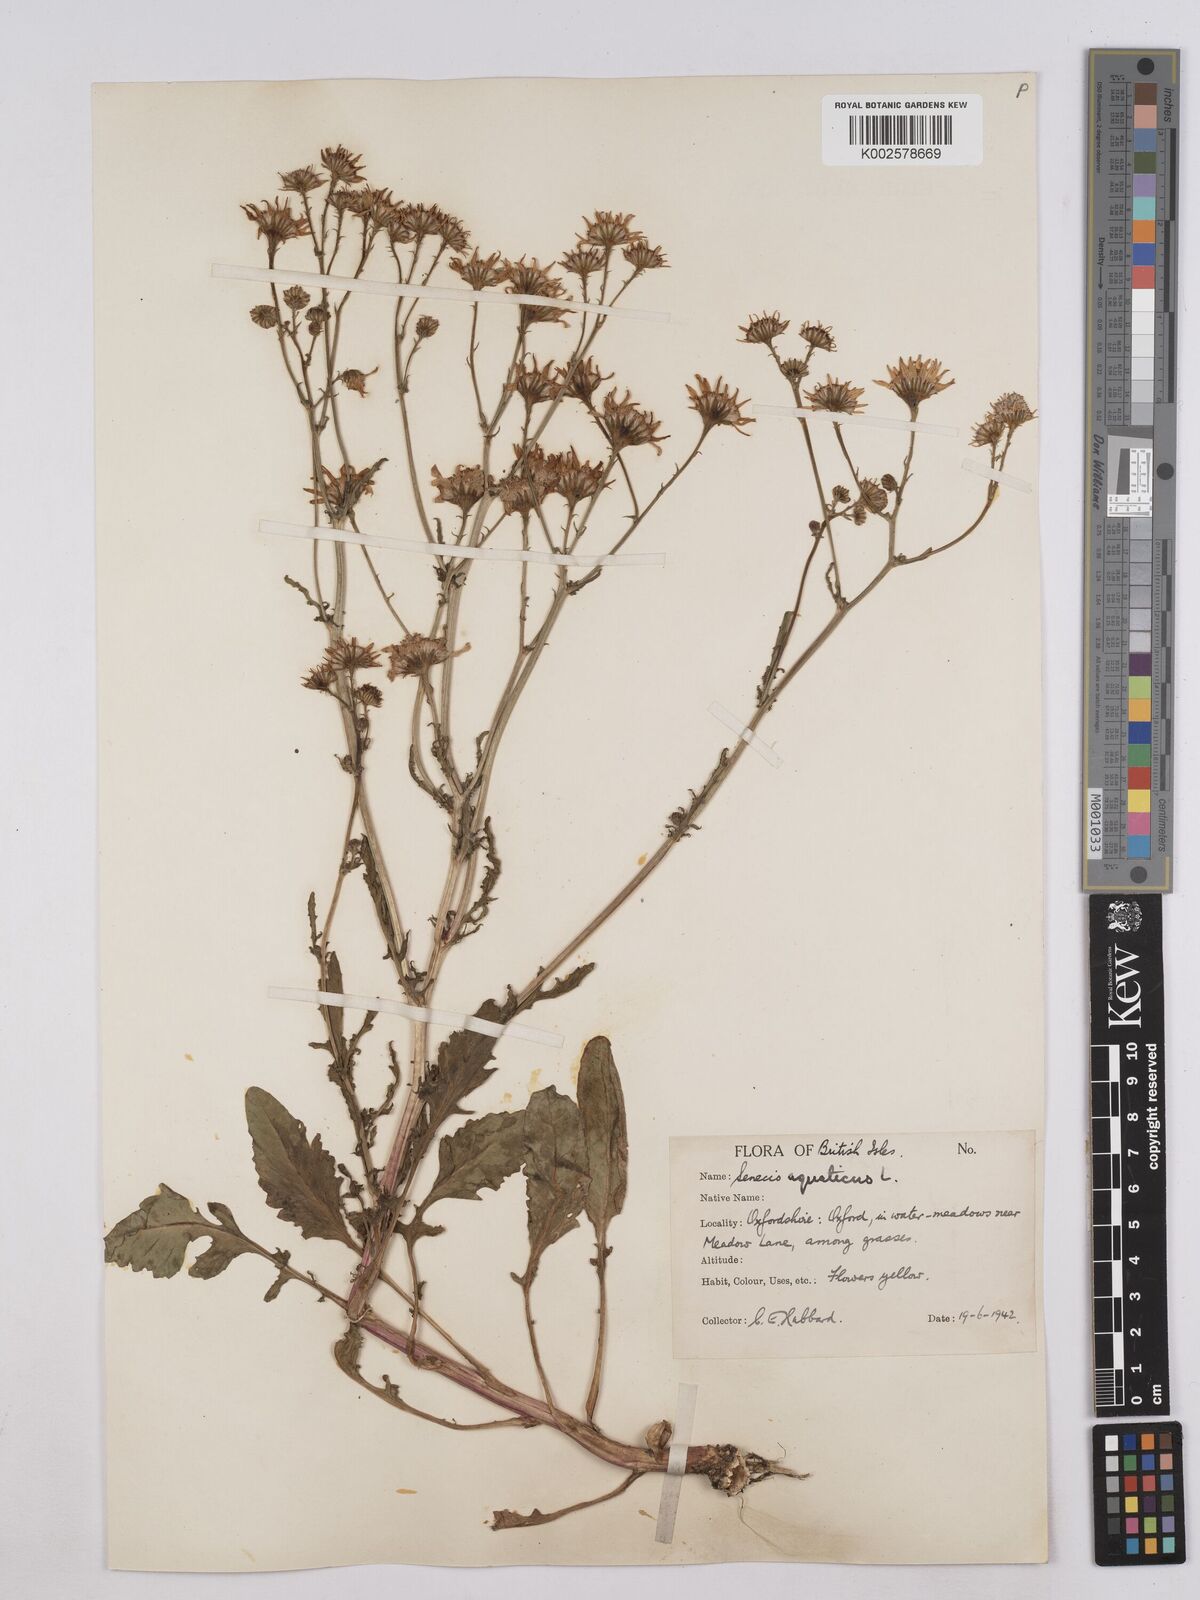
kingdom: Plantae
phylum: Tracheophyta
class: Magnoliopsida
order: Asterales
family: Asteraceae
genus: Jacobaea
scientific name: Jacobaea aquatica
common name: Water ragwort
